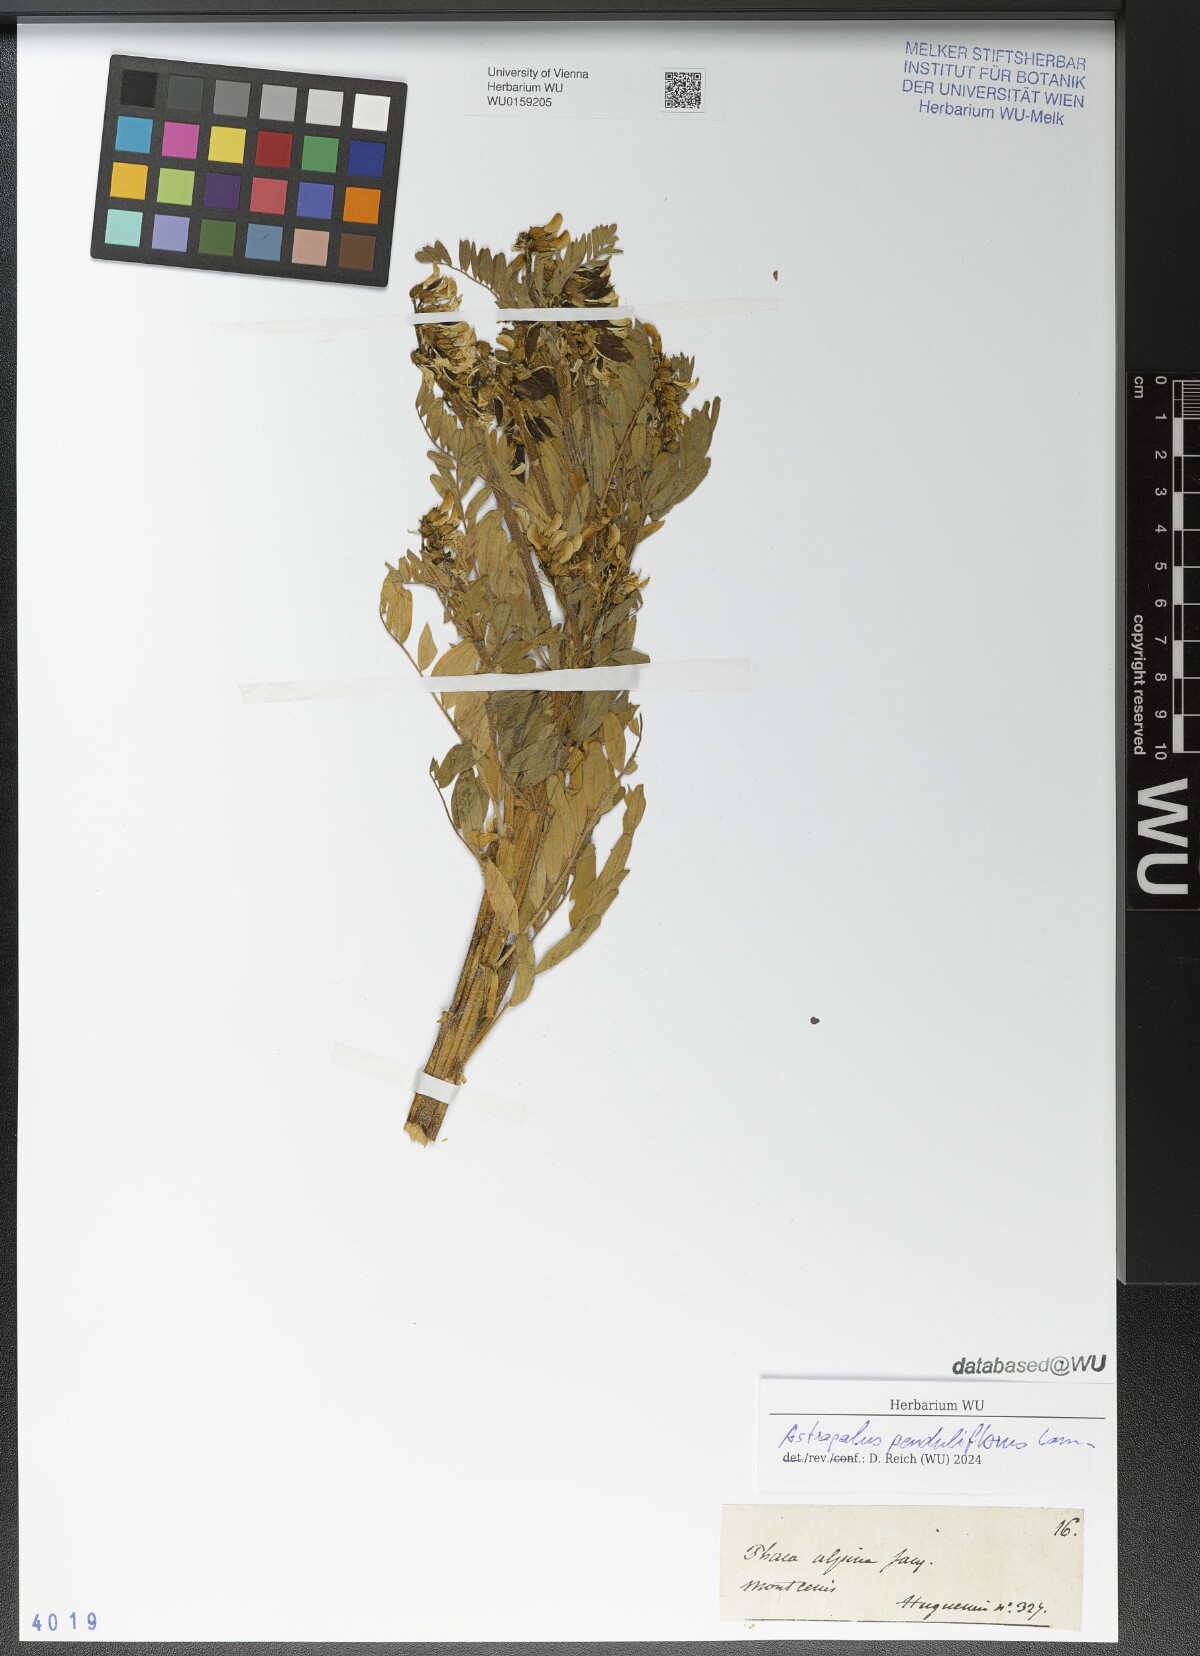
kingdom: Plantae
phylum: Tracheophyta
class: Magnoliopsida
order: Fabales
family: Fabaceae
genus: Astragalus
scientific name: Astragalus penduliflorus
